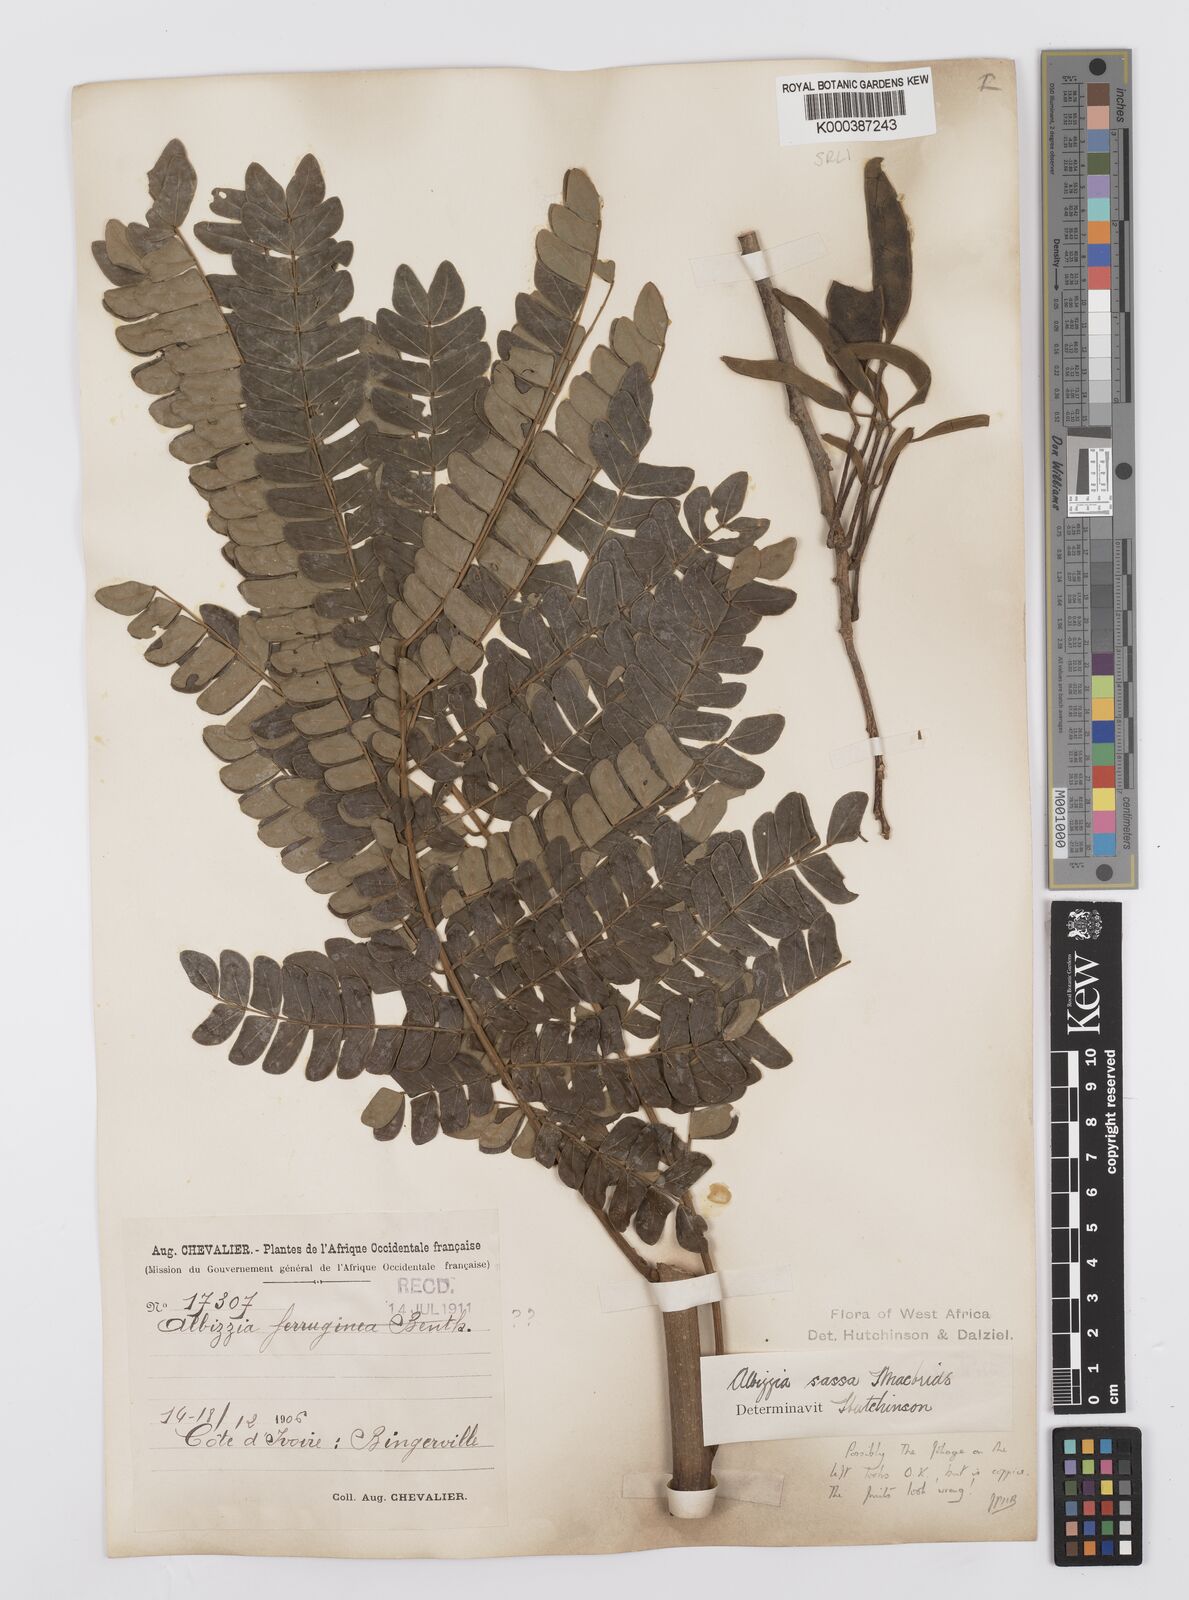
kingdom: Plantae
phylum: Tracheophyta
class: Magnoliopsida
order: Fabales
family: Fabaceae
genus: Albizia
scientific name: Albizia adianthifolia
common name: West african albizia
